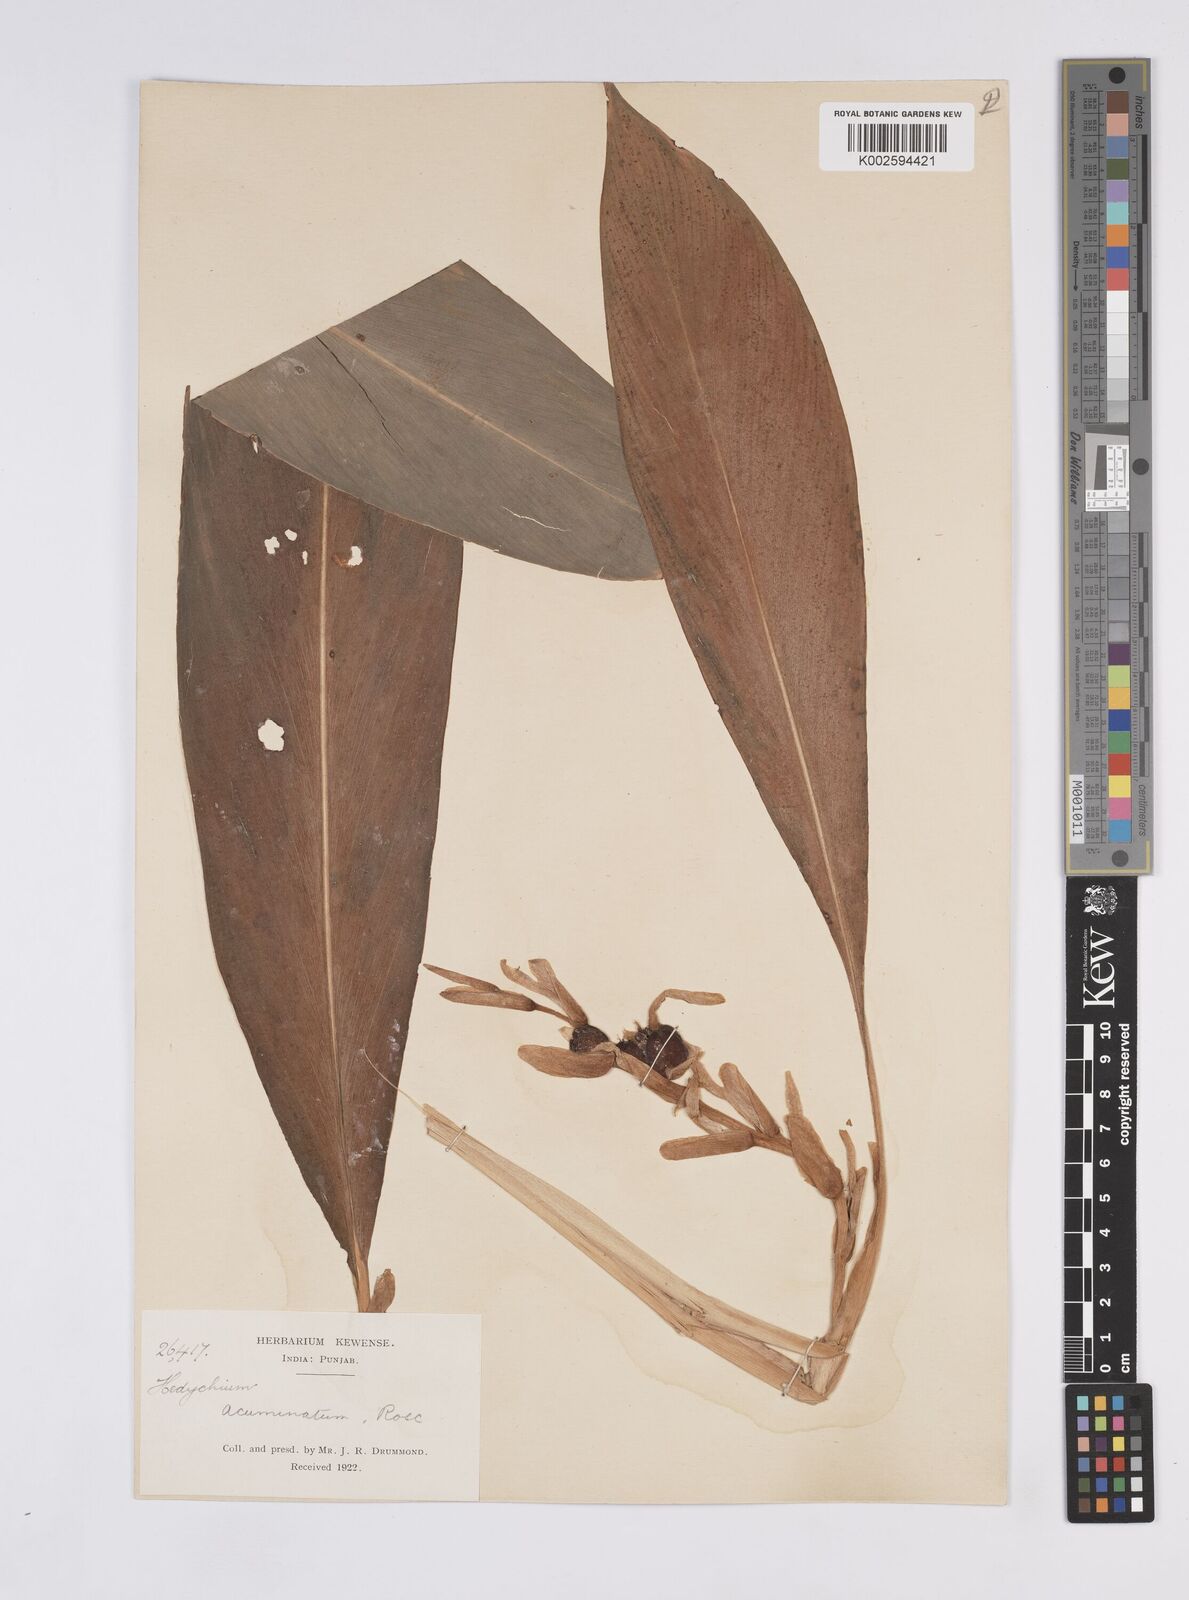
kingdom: Plantae
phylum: Tracheophyta
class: Liliopsida
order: Zingiberales
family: Zingiberaceae
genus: Hedychium
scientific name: Hedychium spicatum
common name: Spiked ginger-lily
